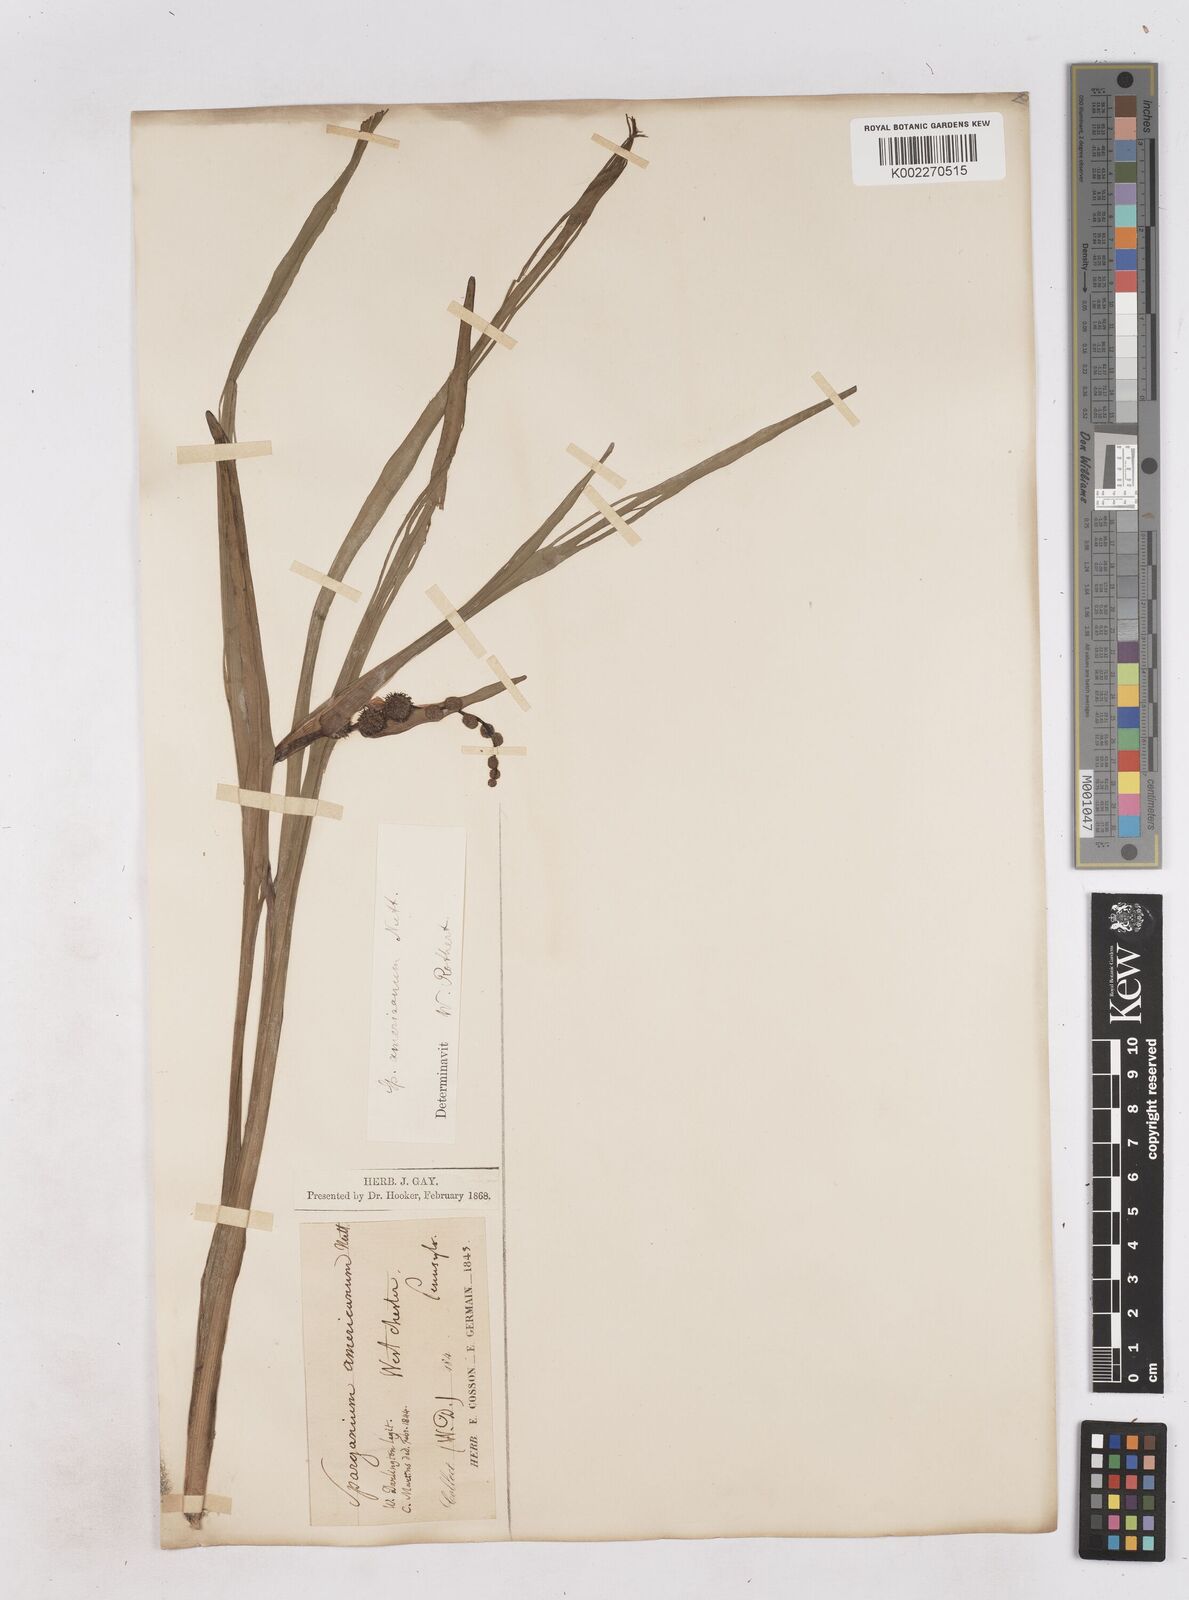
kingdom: Plantae
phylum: Tracheophyta
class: Liliopsida
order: Poales
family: Typhaceae
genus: Sparganium
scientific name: Sparganium americanum
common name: American burreed
